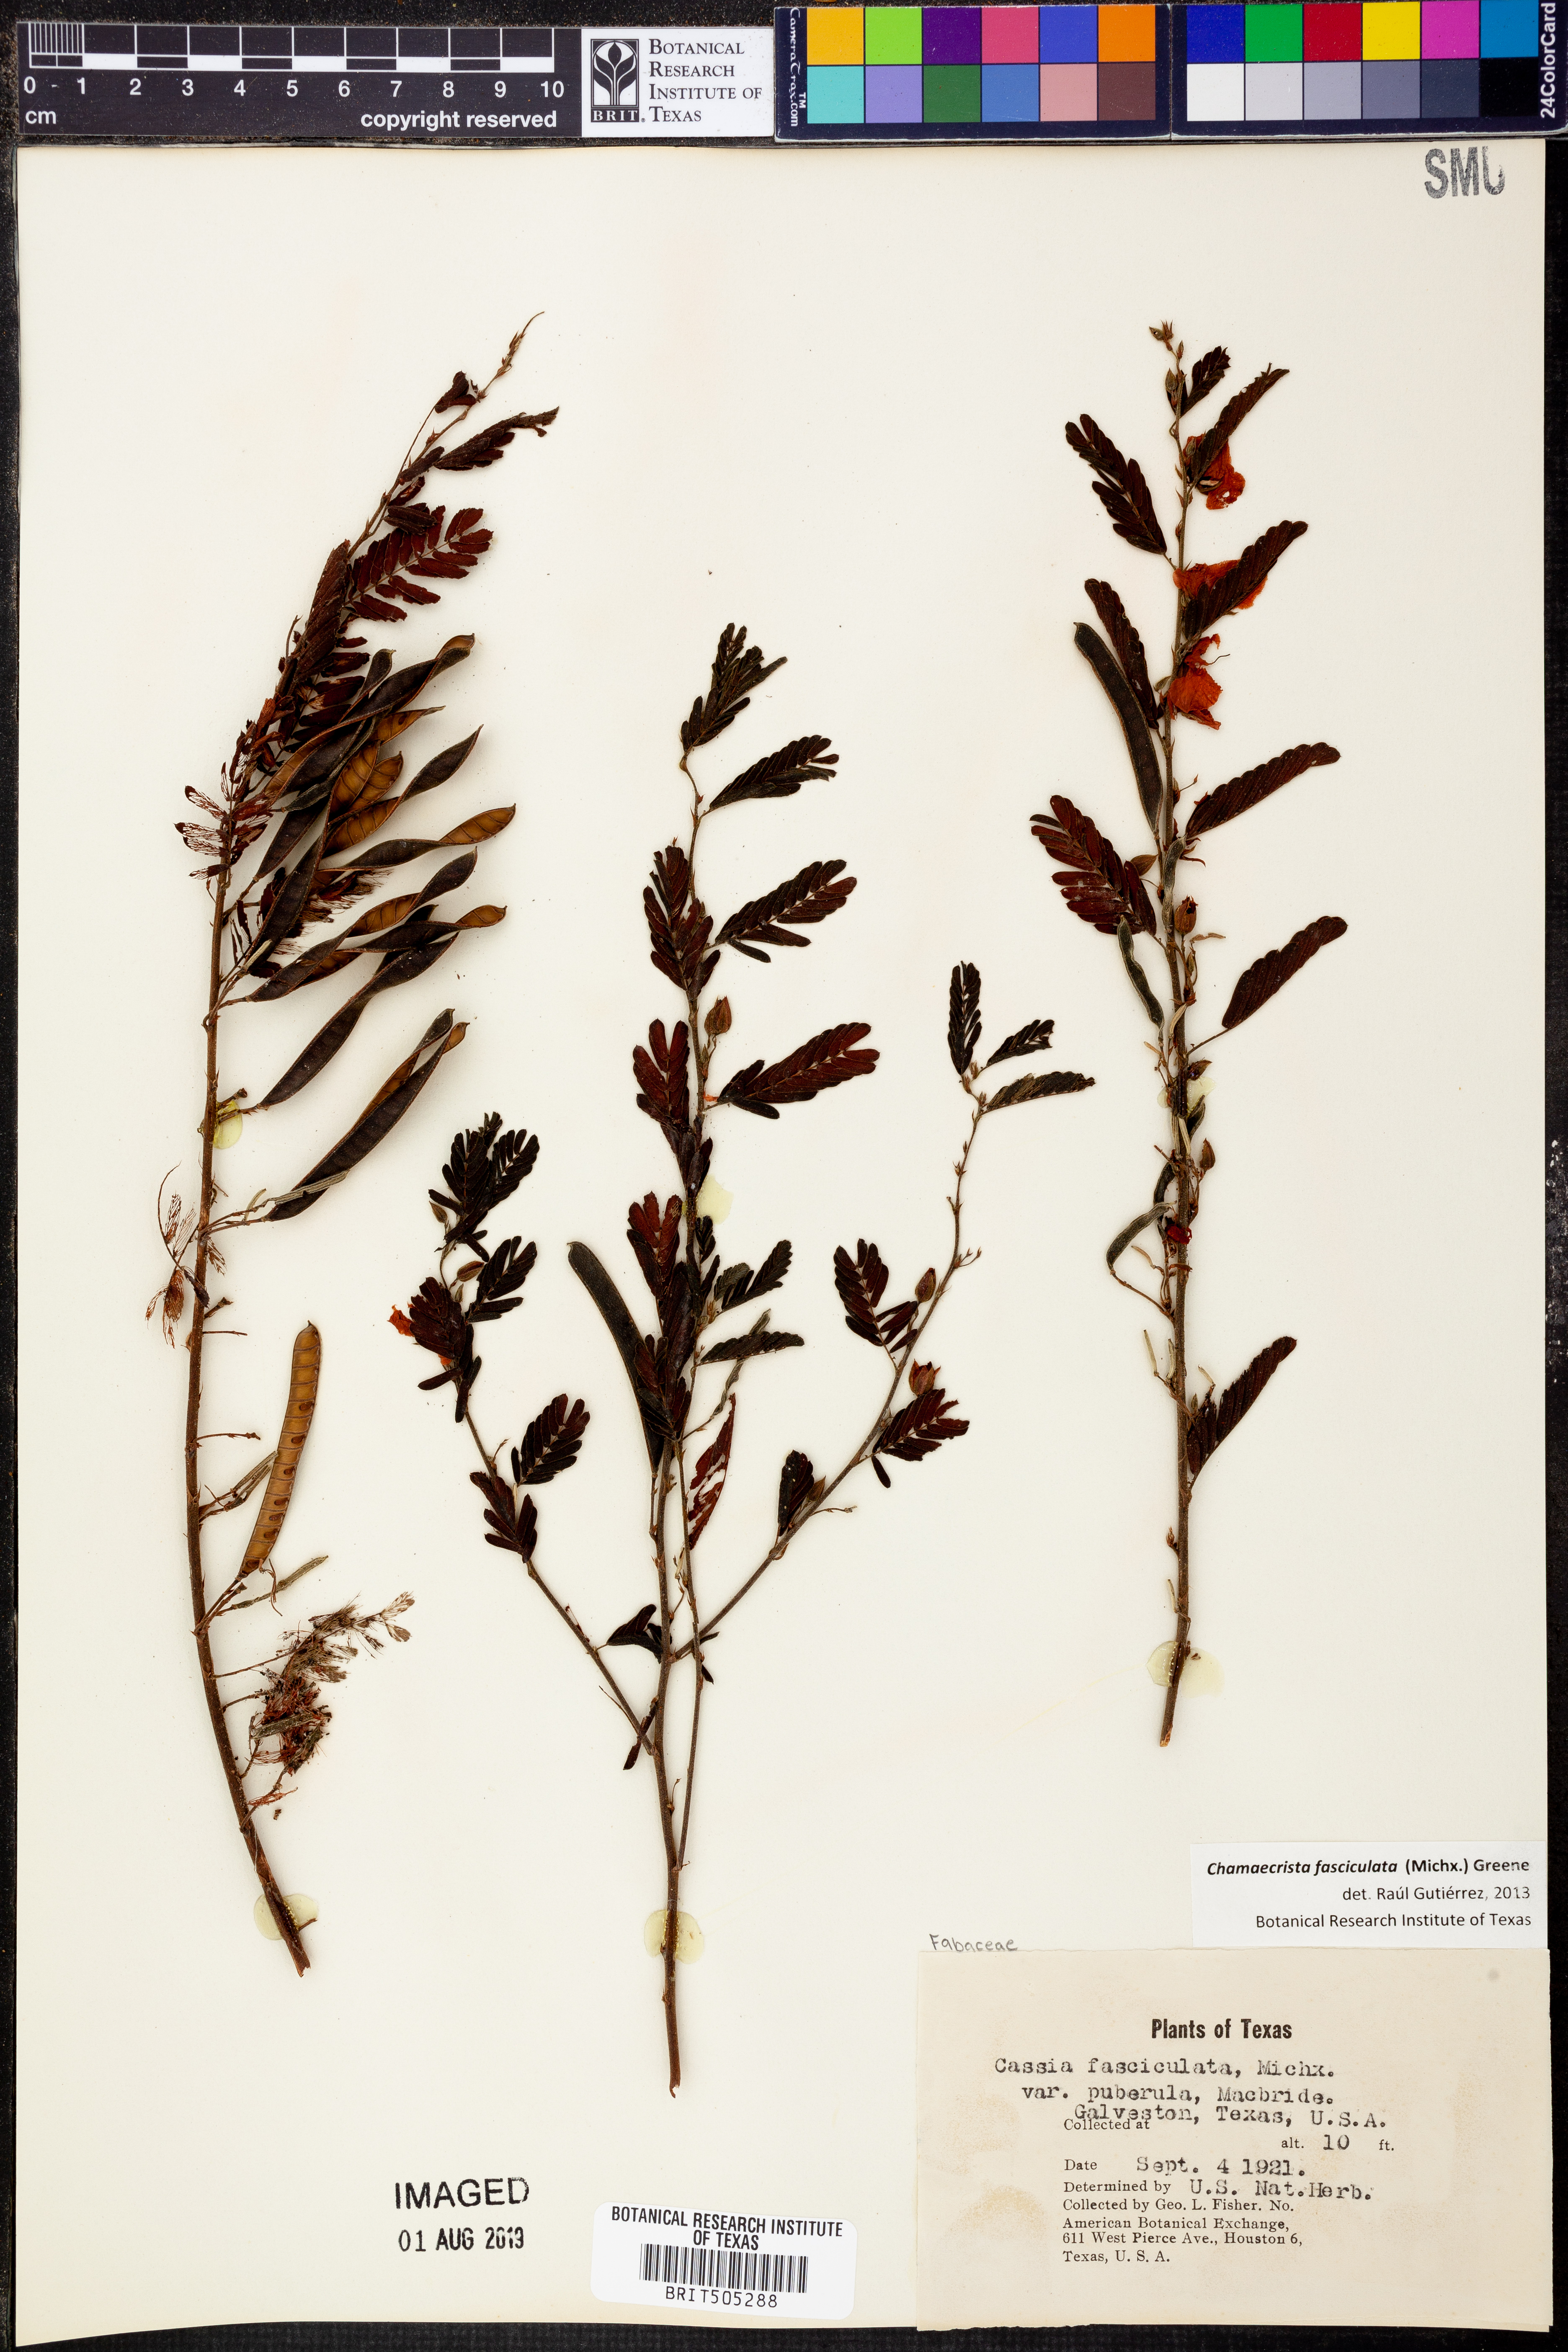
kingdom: Plantae
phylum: Tracheophyta
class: Magnoliopsida
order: Fabales
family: Fabaceae
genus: Chamaecrista
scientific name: Chamaecrista fasciculata
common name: Golden cassia
